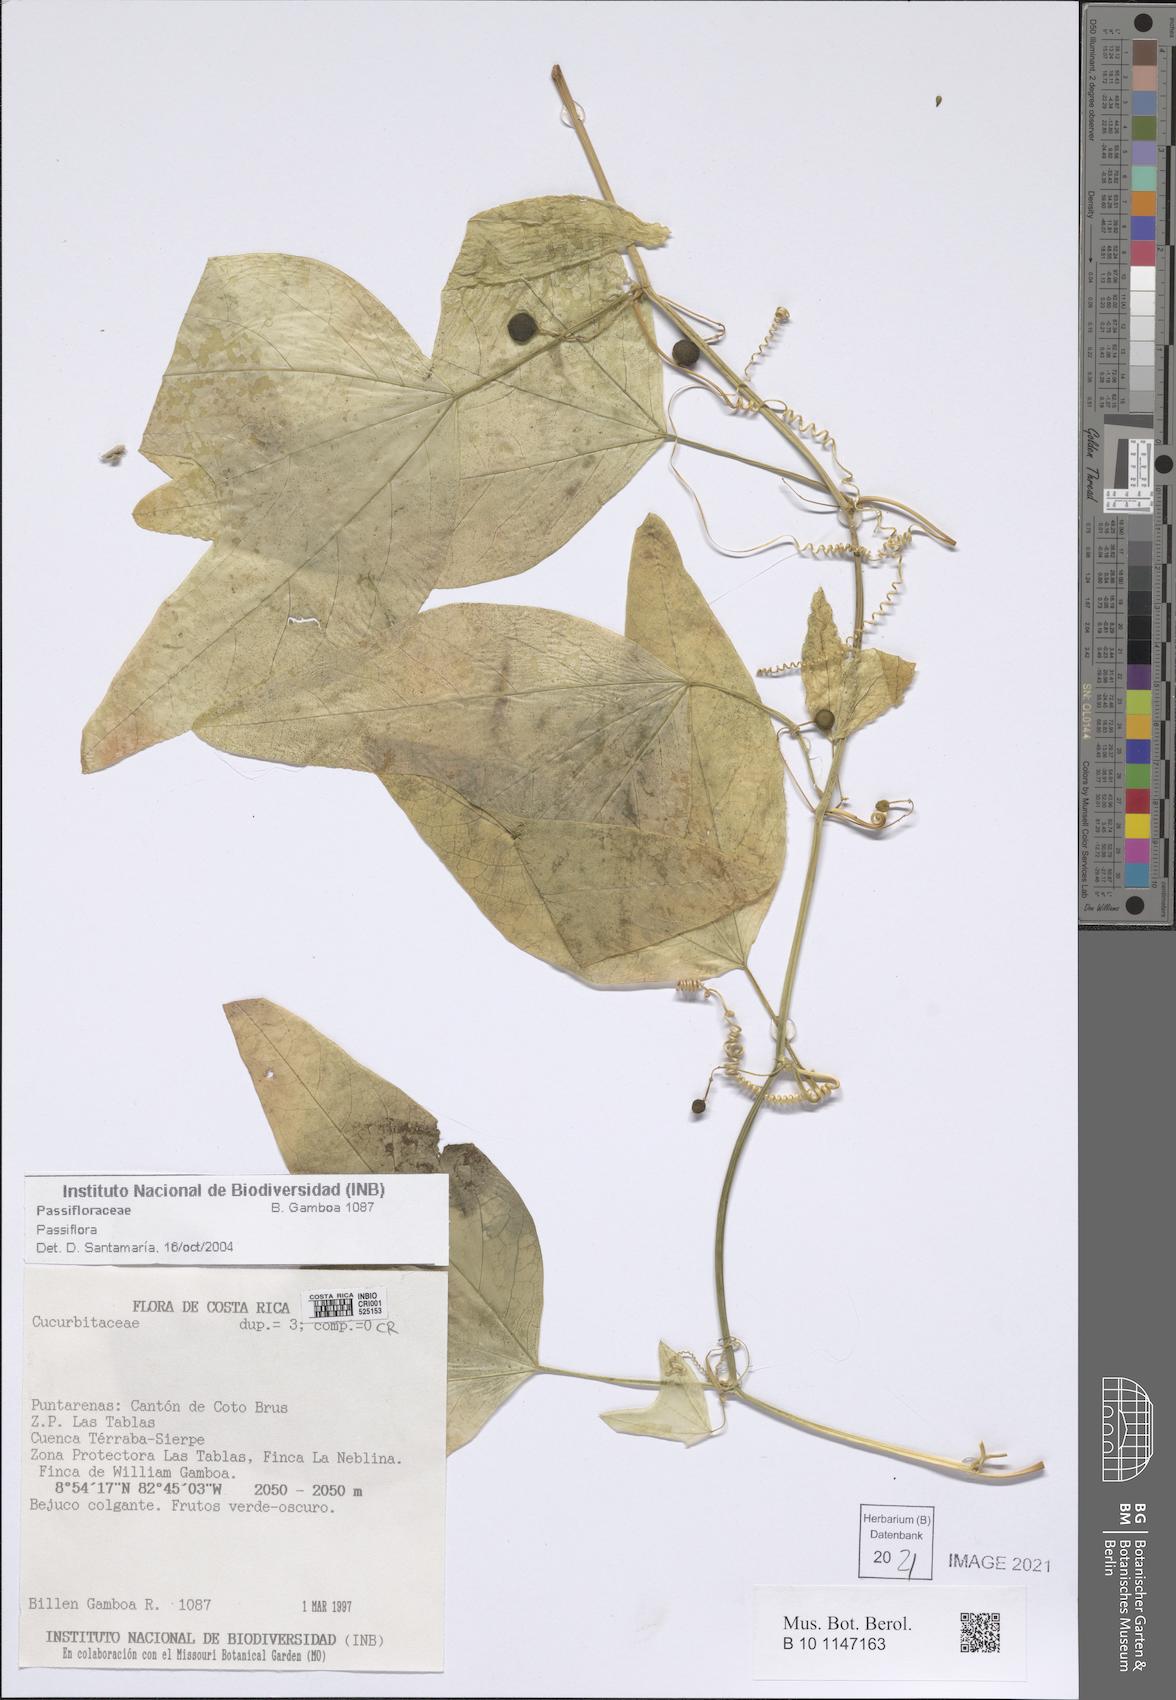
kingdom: Plantae
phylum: Tracheophyta
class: Magnoliopsida
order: Malpighiales
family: Passifloraceae
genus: Passiflora
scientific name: Passiflora
